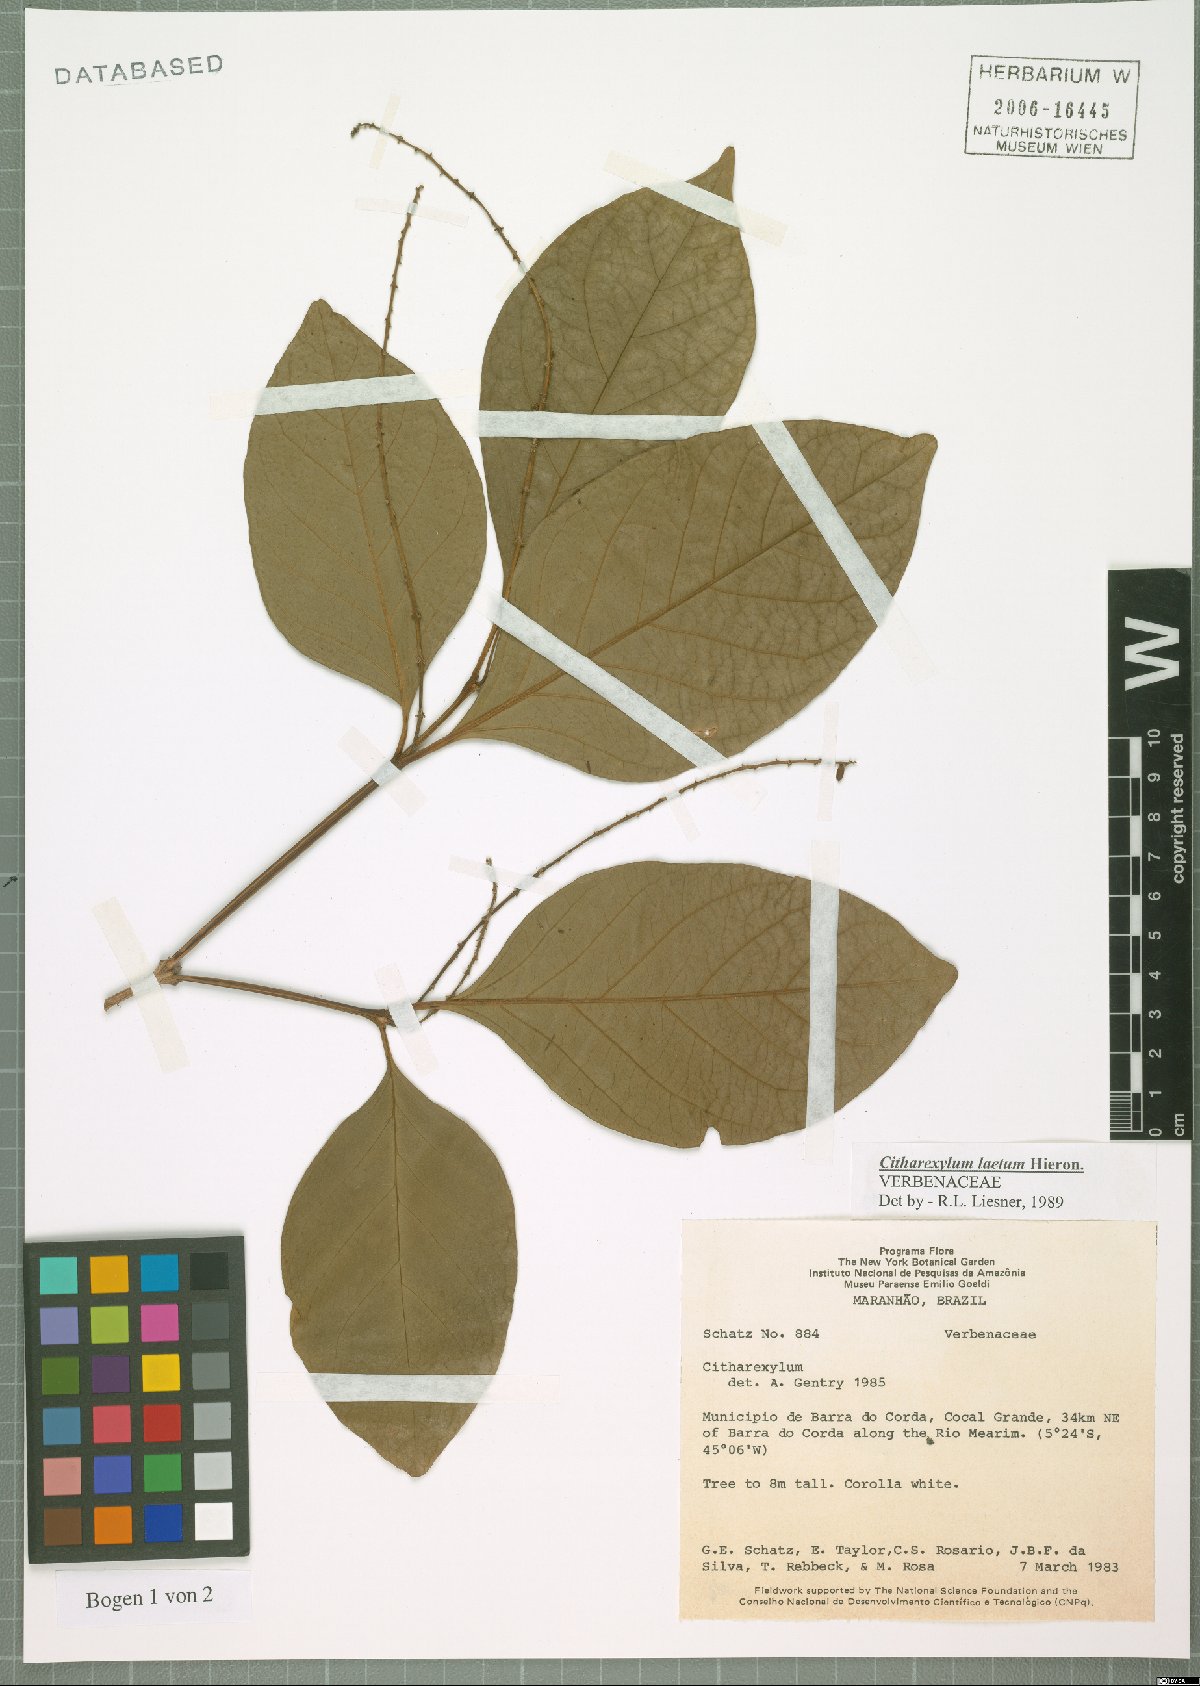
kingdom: Plantae
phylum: Tracheophyta
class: Magnoliopsida
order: Lamiales
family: Verbenaceae
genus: Citharexylum
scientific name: Citharexylum myrianthum
